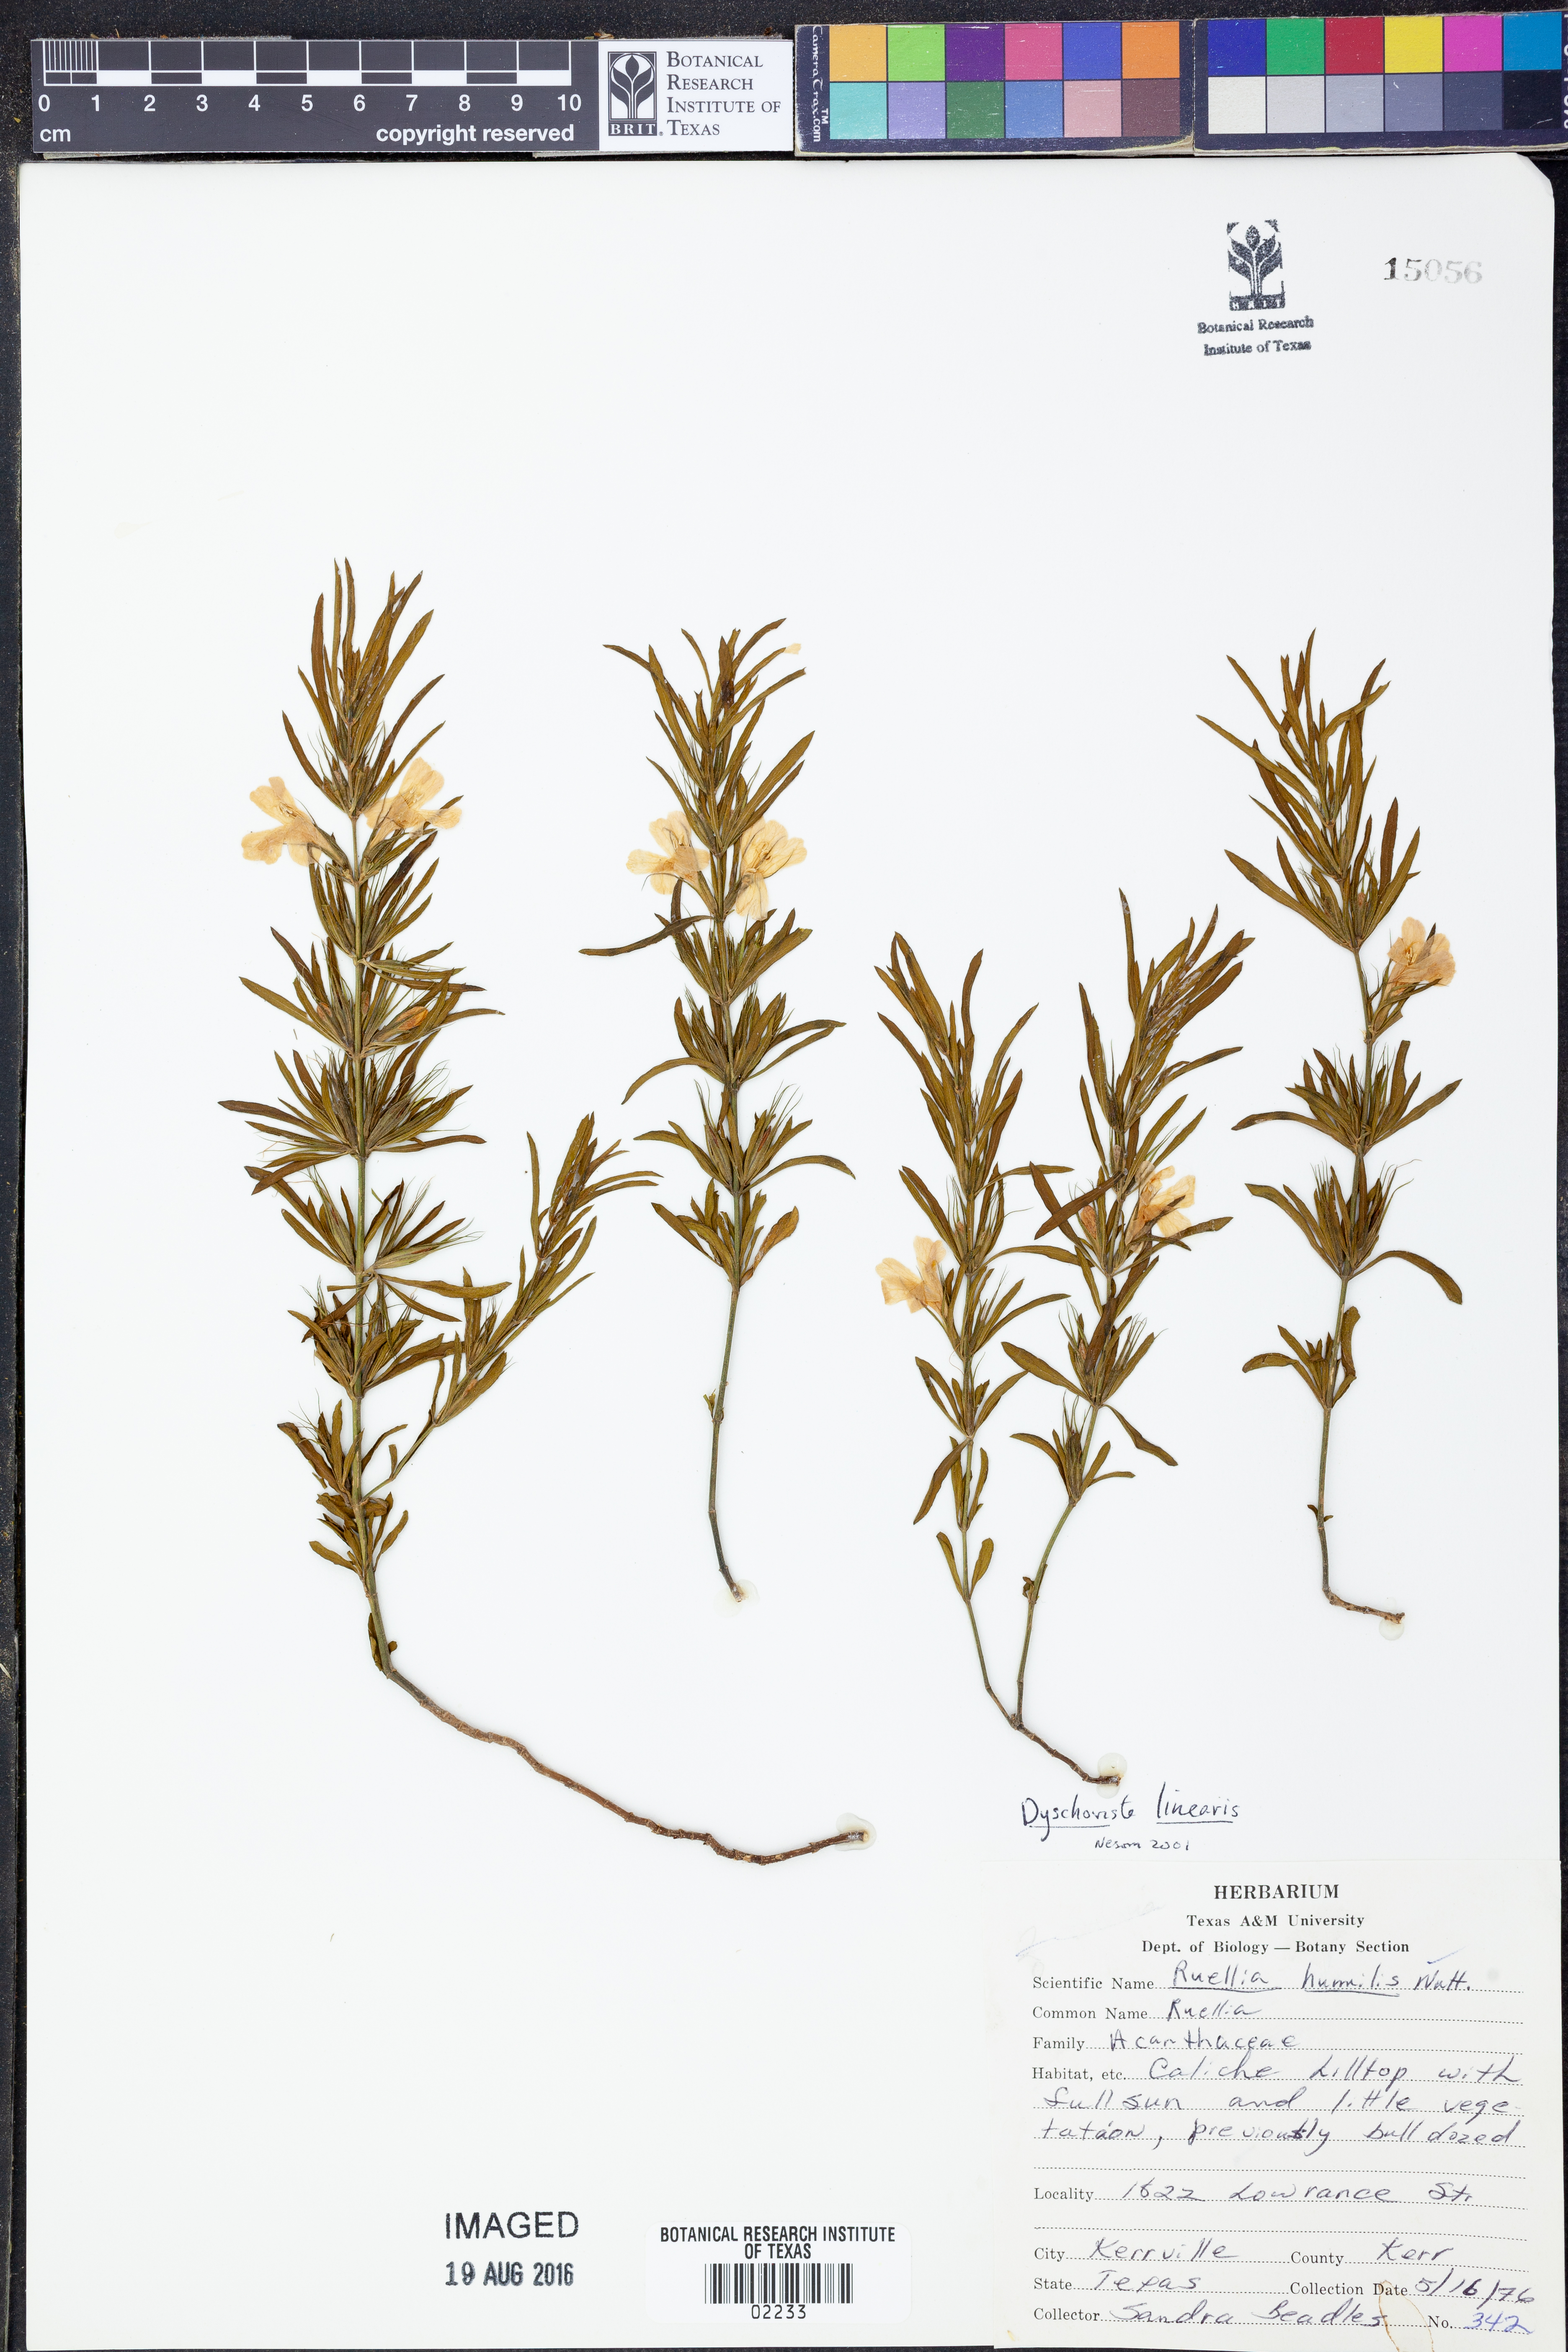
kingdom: Plantae
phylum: Tracheophyta
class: Magnoliopsida
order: Lamiales
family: Acanthaceae
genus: Dyschoriste
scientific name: Dyschoriste linearis
